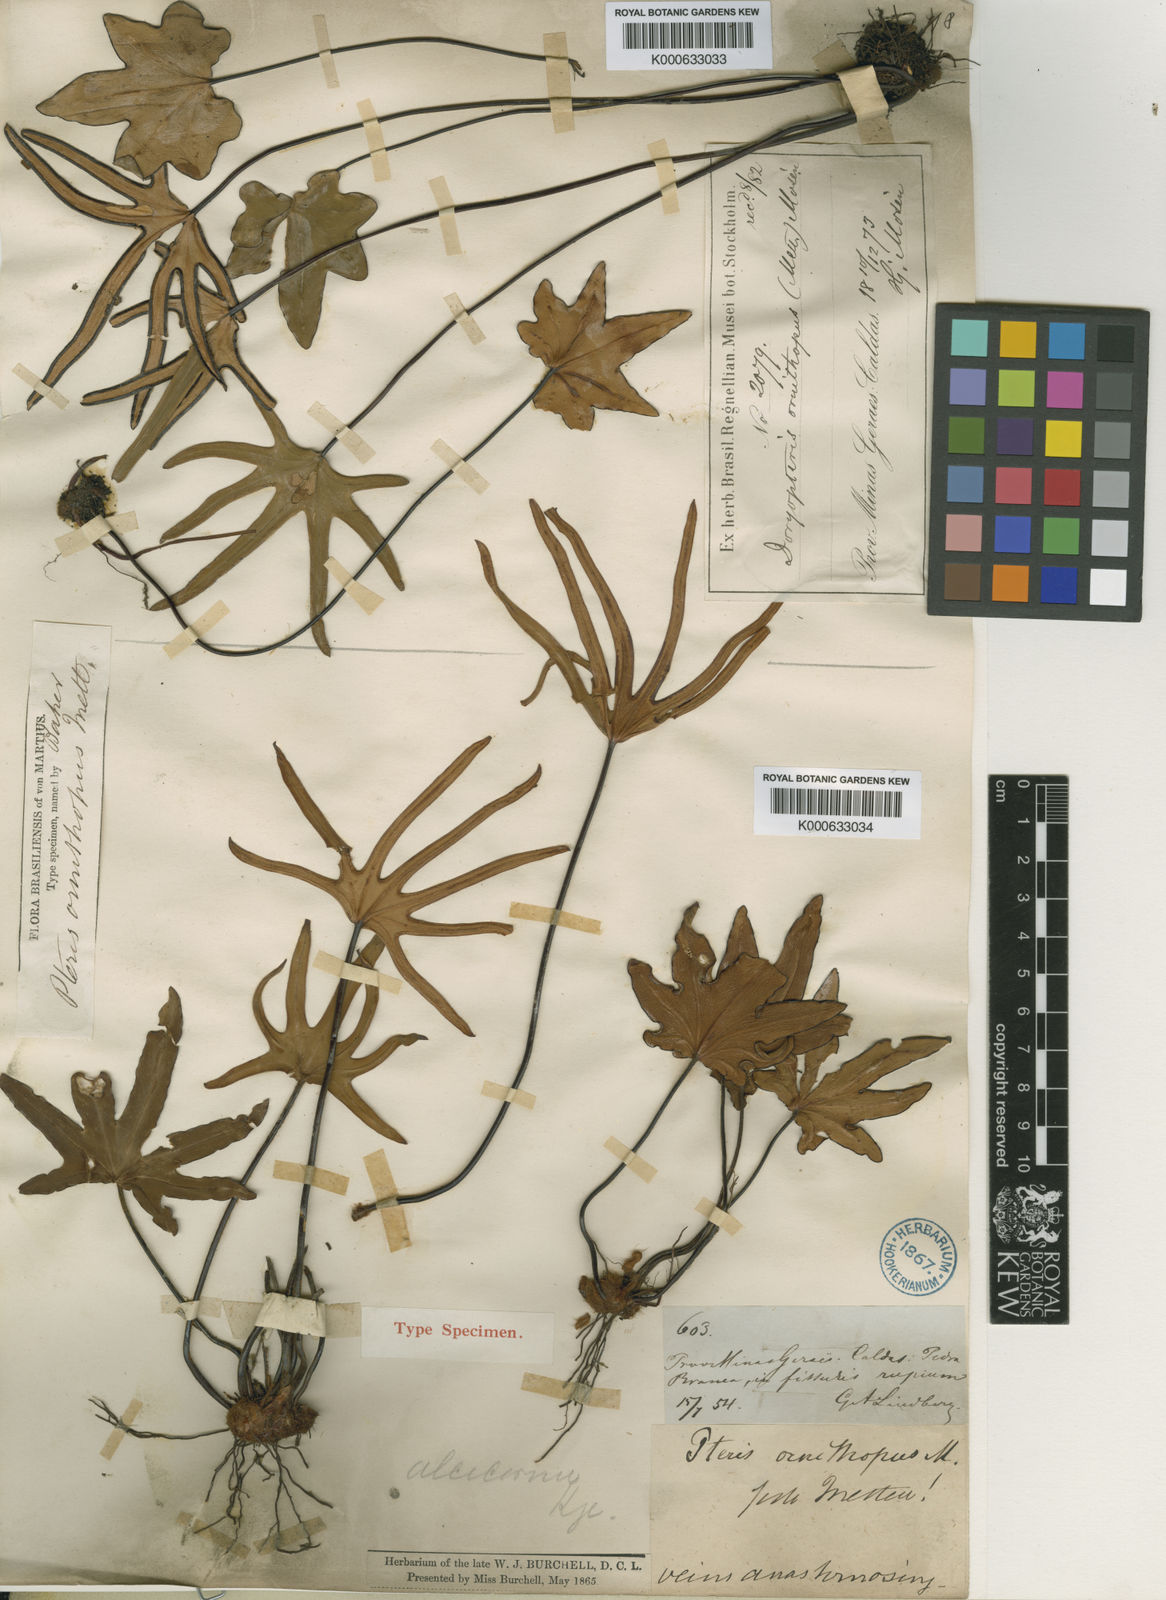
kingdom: Plantae
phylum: Tracheophyta
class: Polypodiopsida
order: Polypodiales
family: Pteridaceae
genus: Lytoneuron
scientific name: Lytoneuron ornithopus
